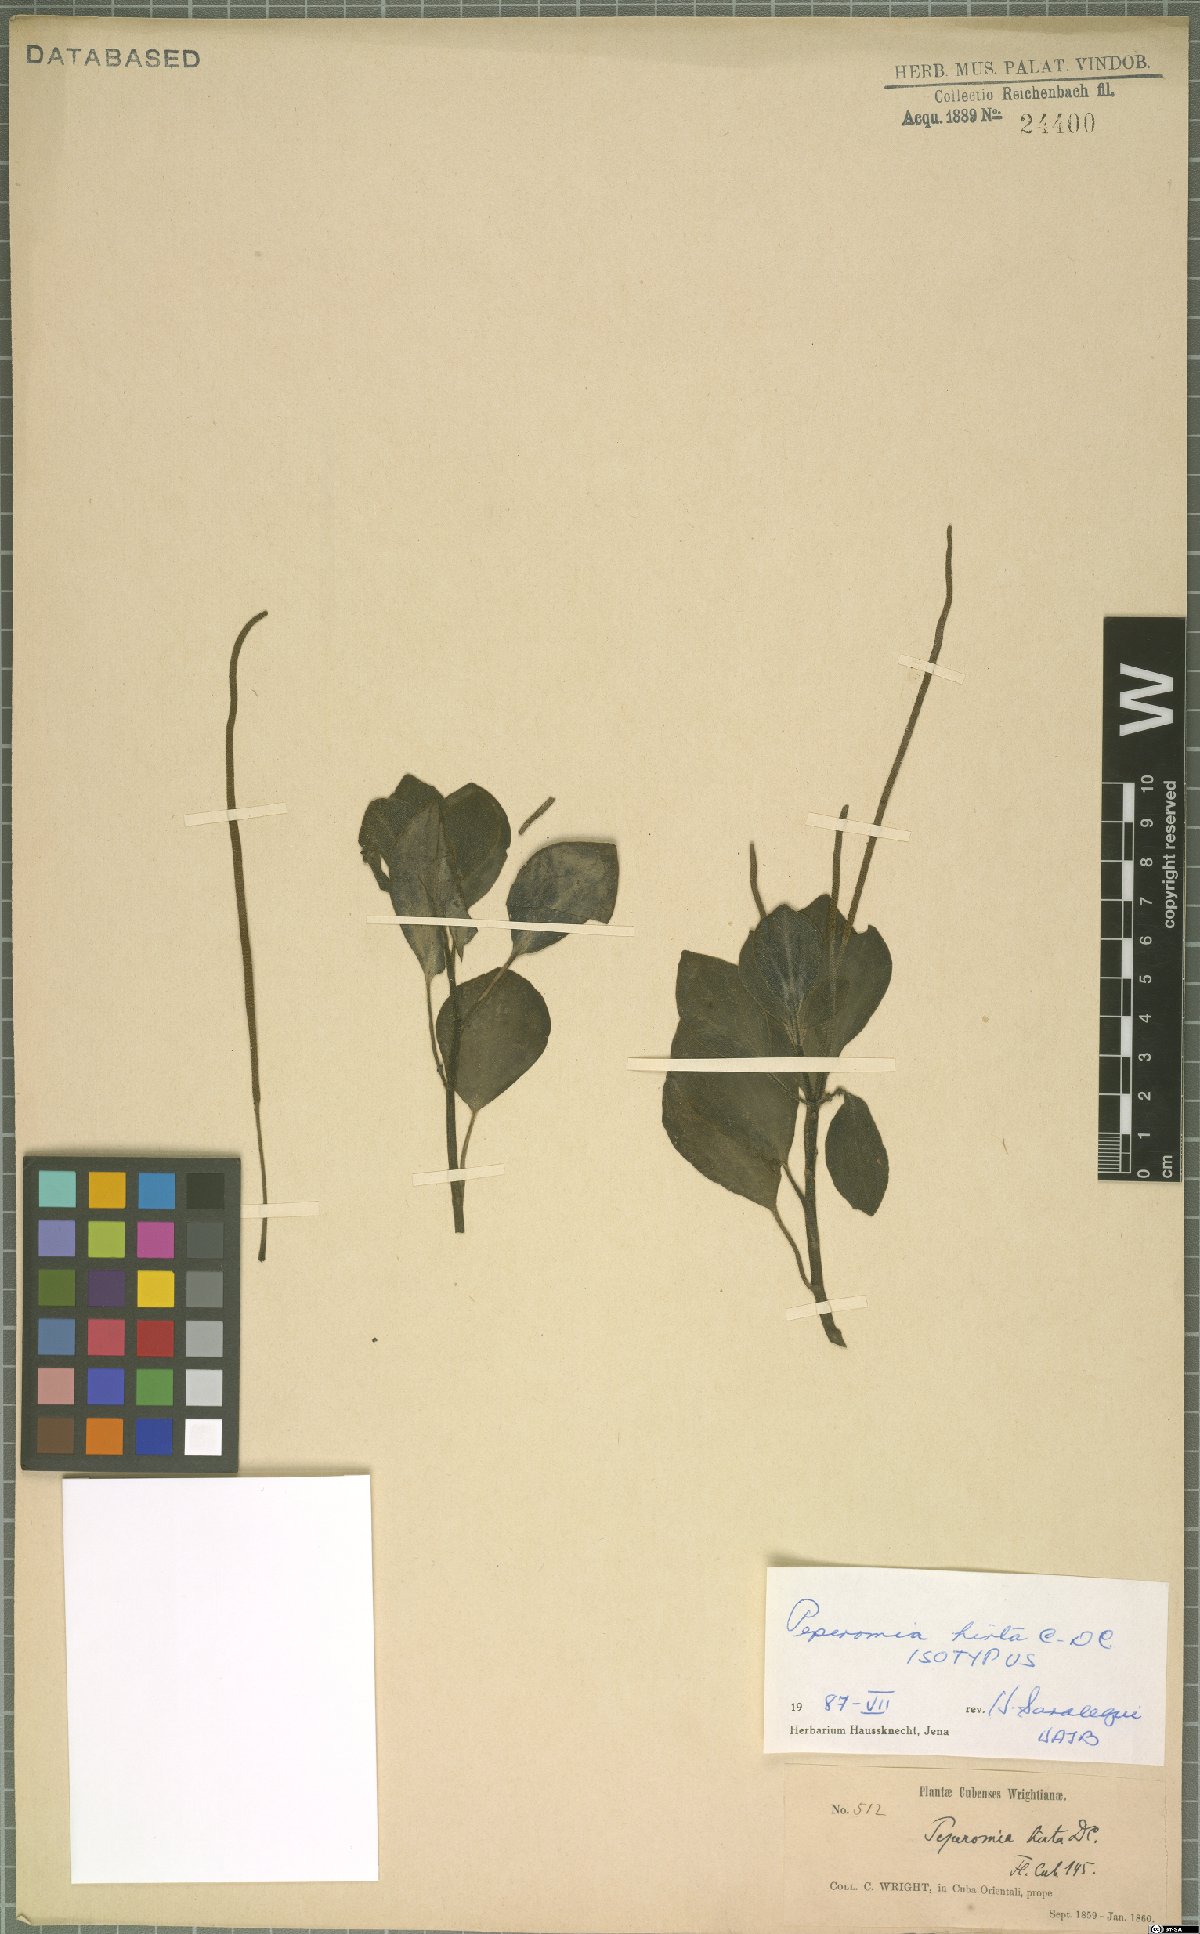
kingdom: Plantae
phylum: Tracheophyta
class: Magnoliopsida
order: Piperales
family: Piperaceae
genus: Peperomia
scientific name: Peperomia hirta
